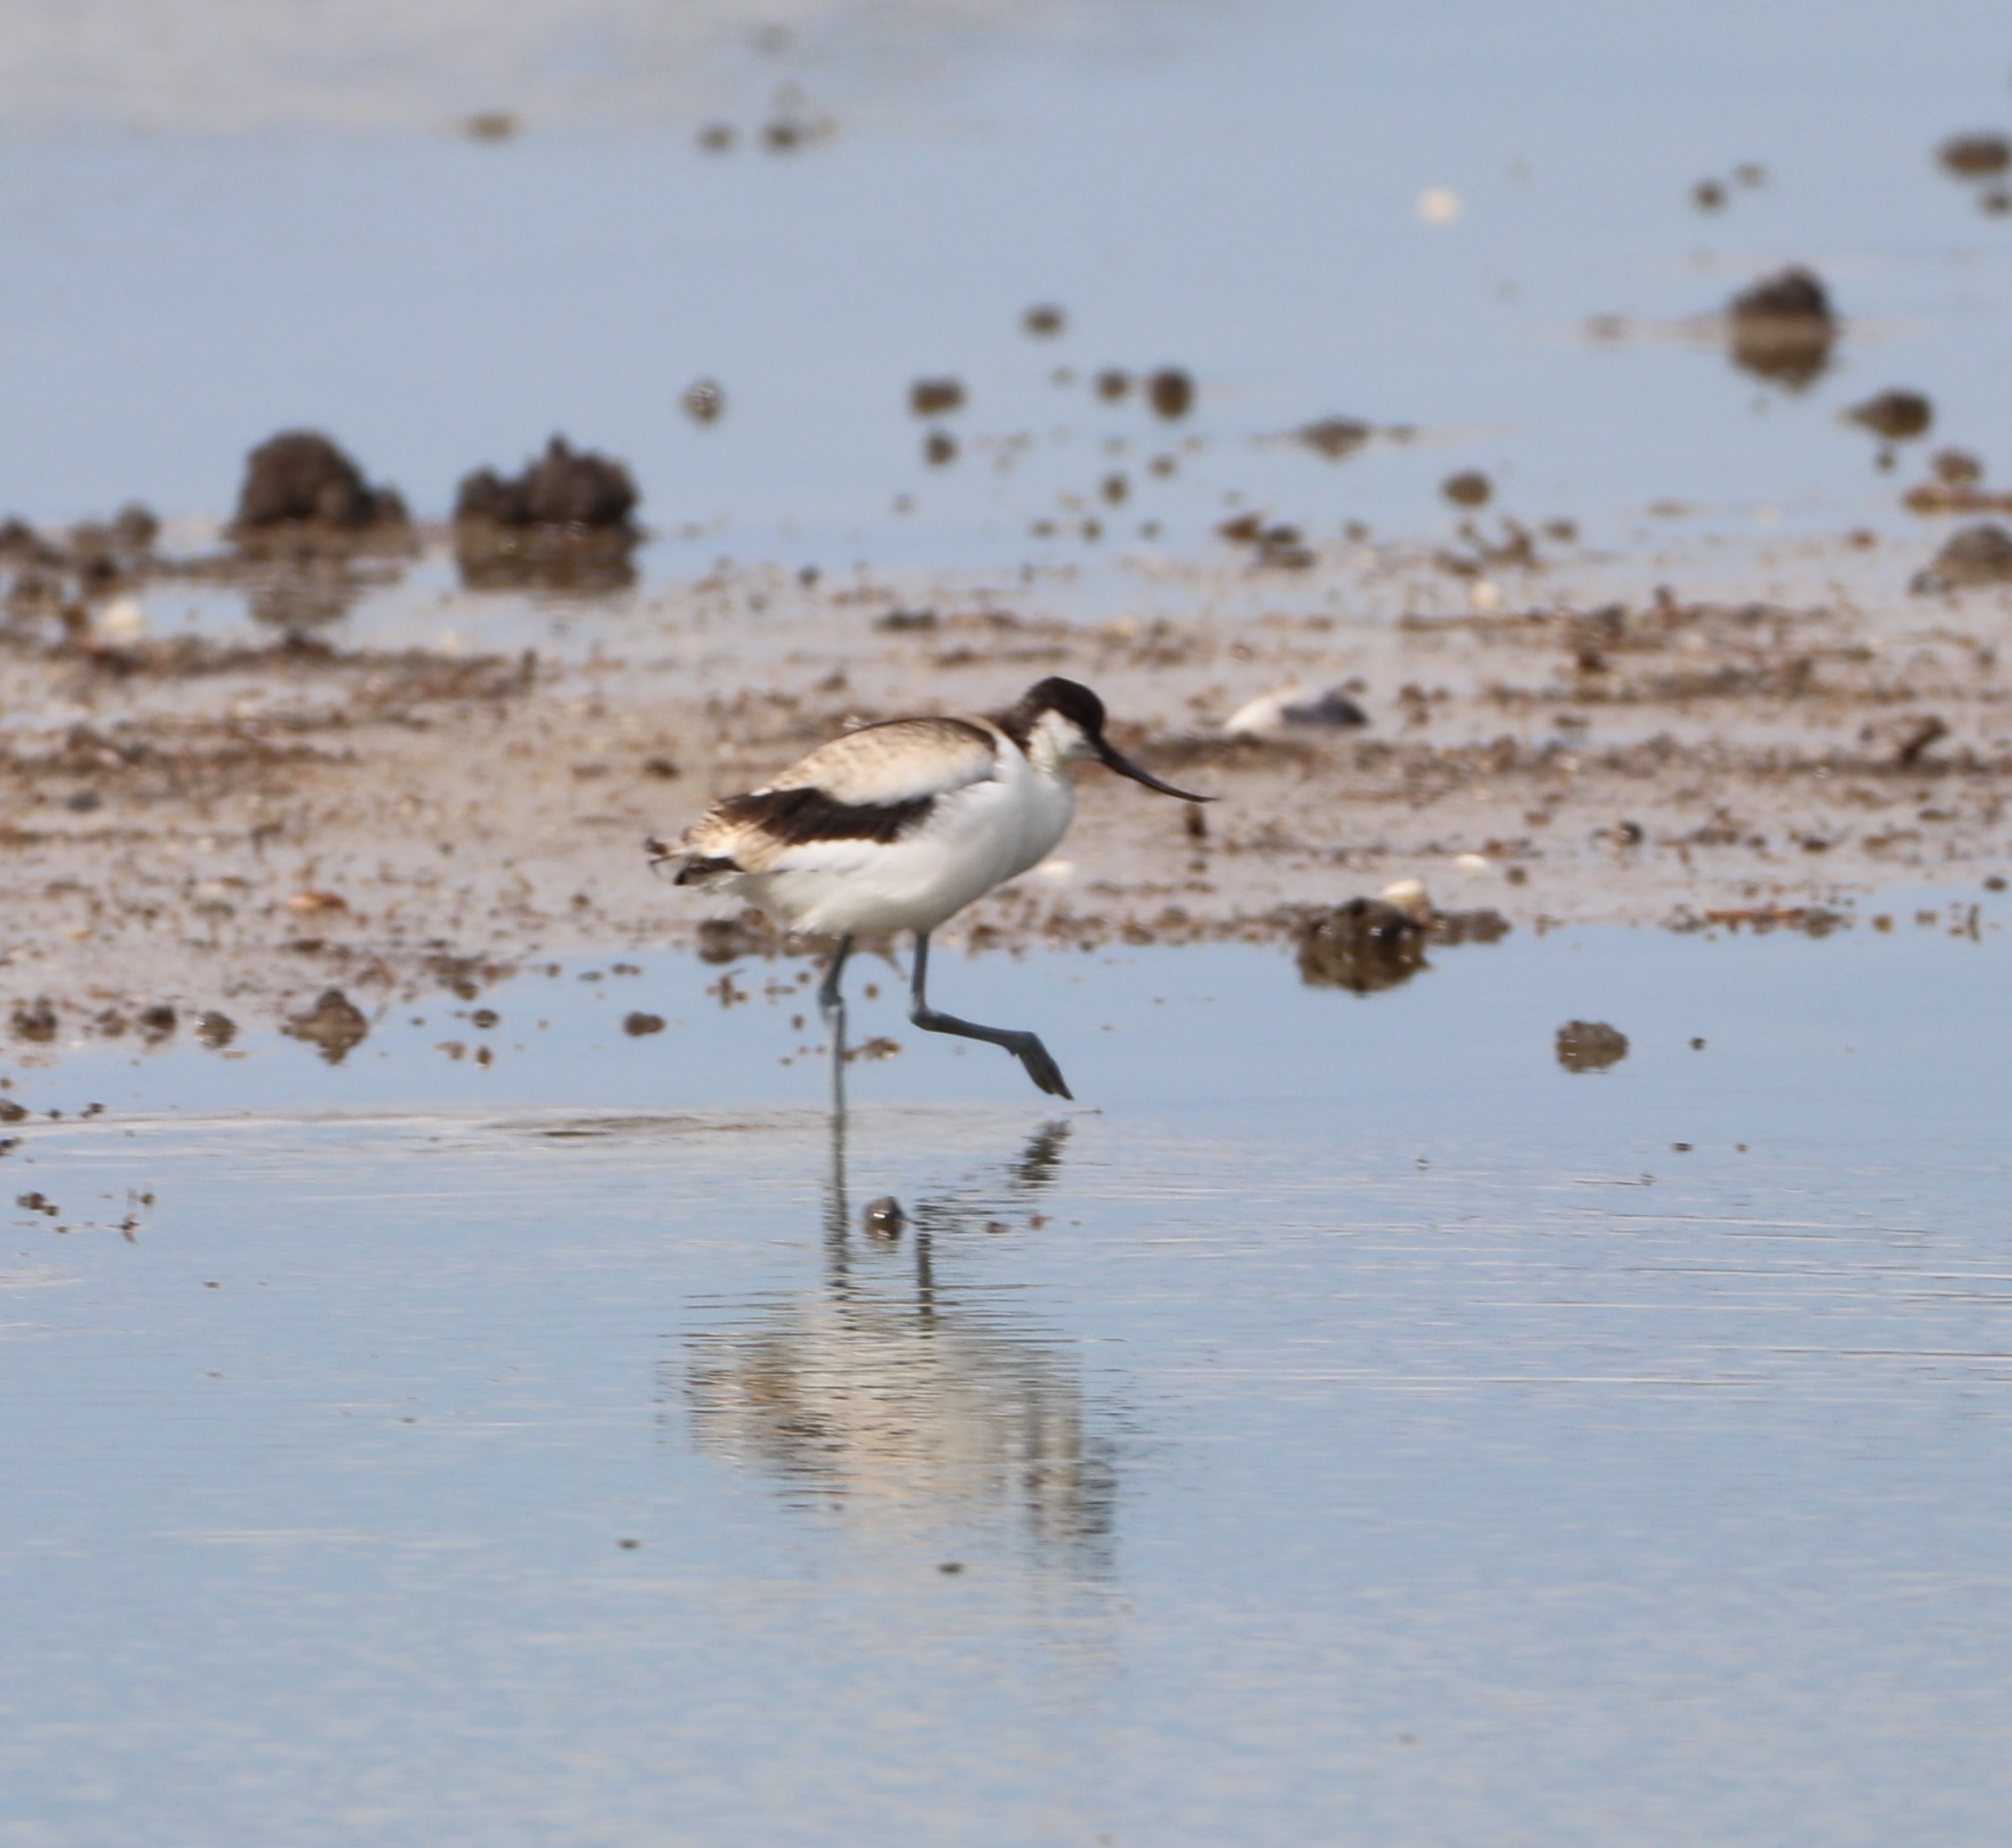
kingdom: Animalia
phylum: Chordata
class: Aves
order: Charadriiformes
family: Recurvirostridae
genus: Recurvirostra
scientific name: Recurvirostra avosetta
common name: Klyde
